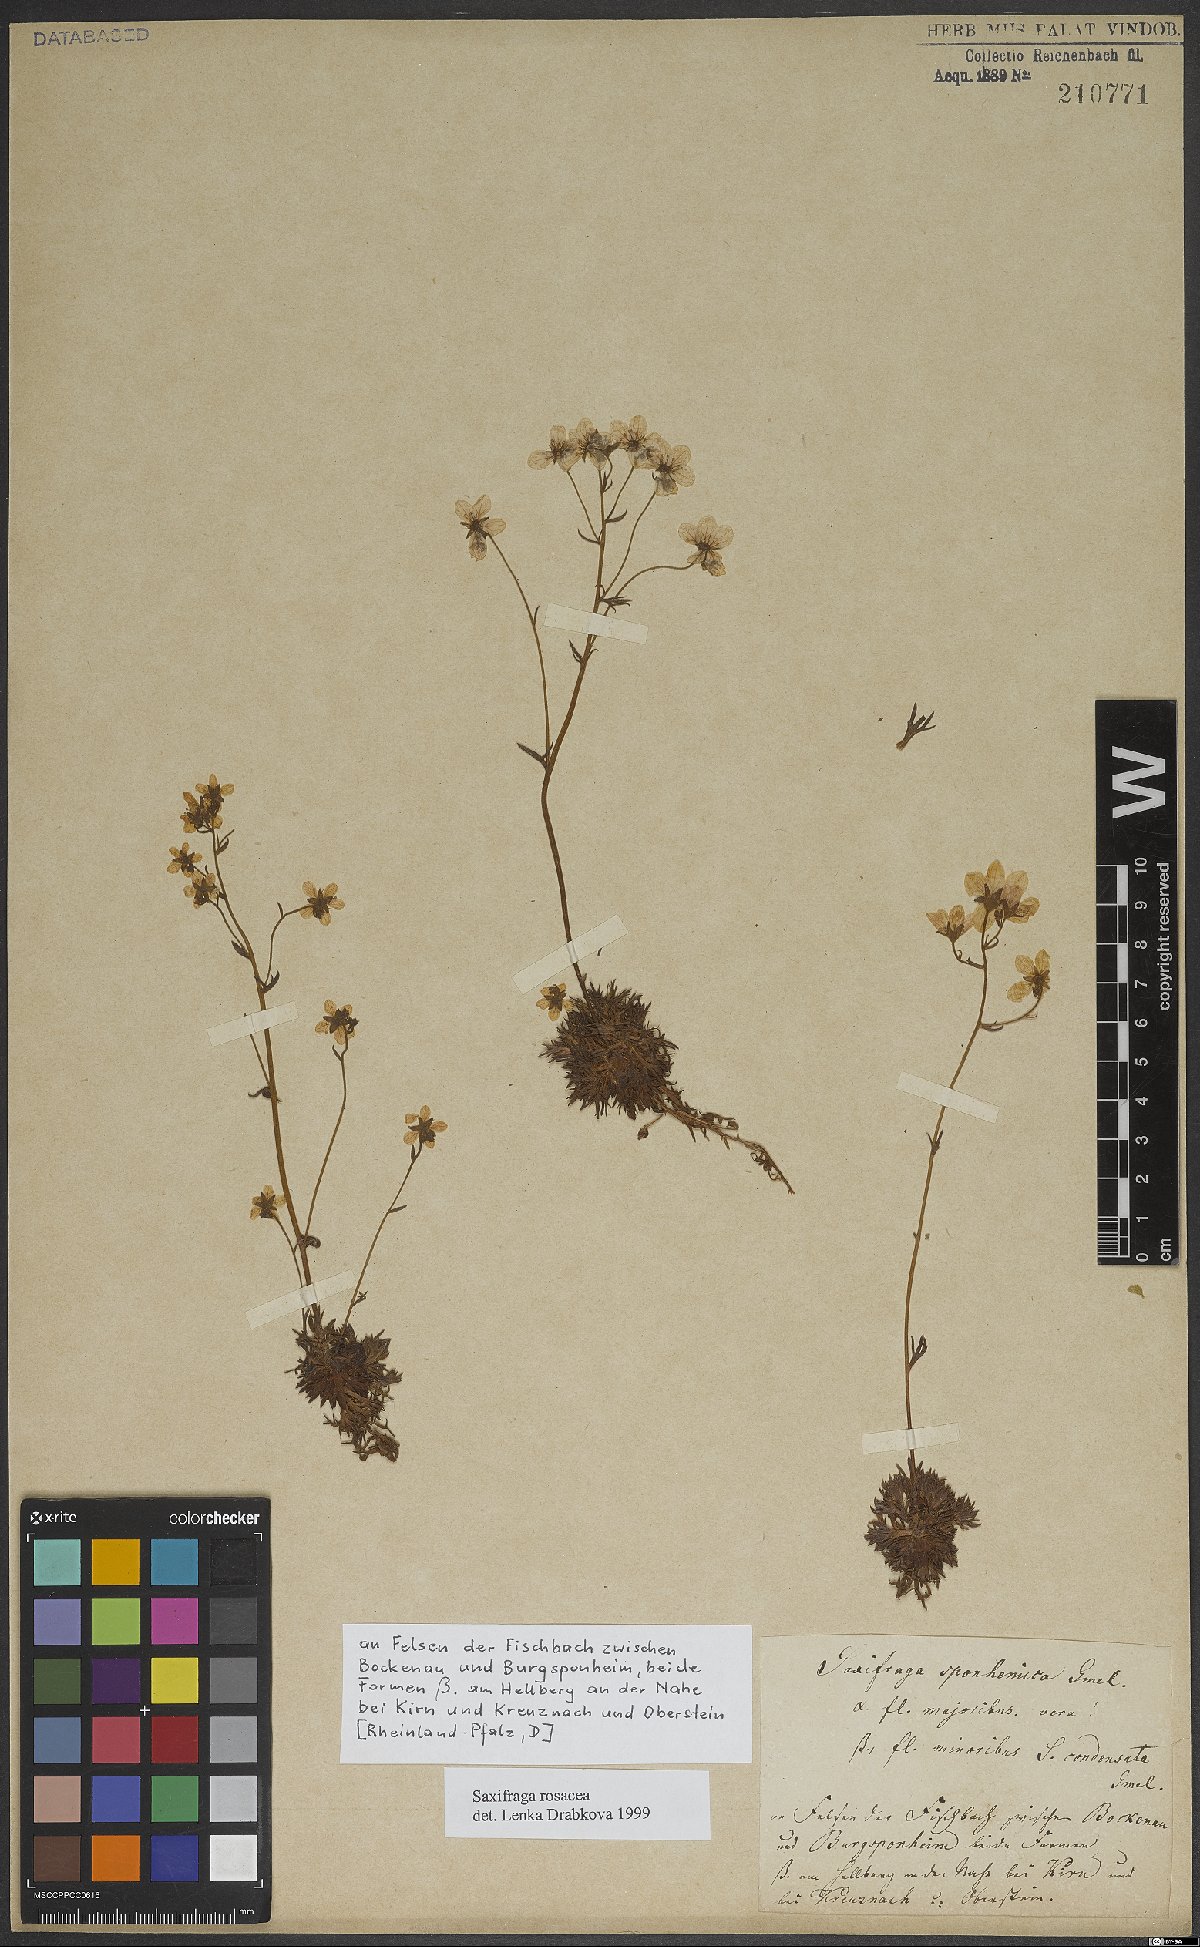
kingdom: Plantae
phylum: Tracheophyta
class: Magnoliopsida
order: Saxifragales
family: Saxifragaceae
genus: Saxifraga
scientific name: Saxifraga rosacea
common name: Irish saxifrage
